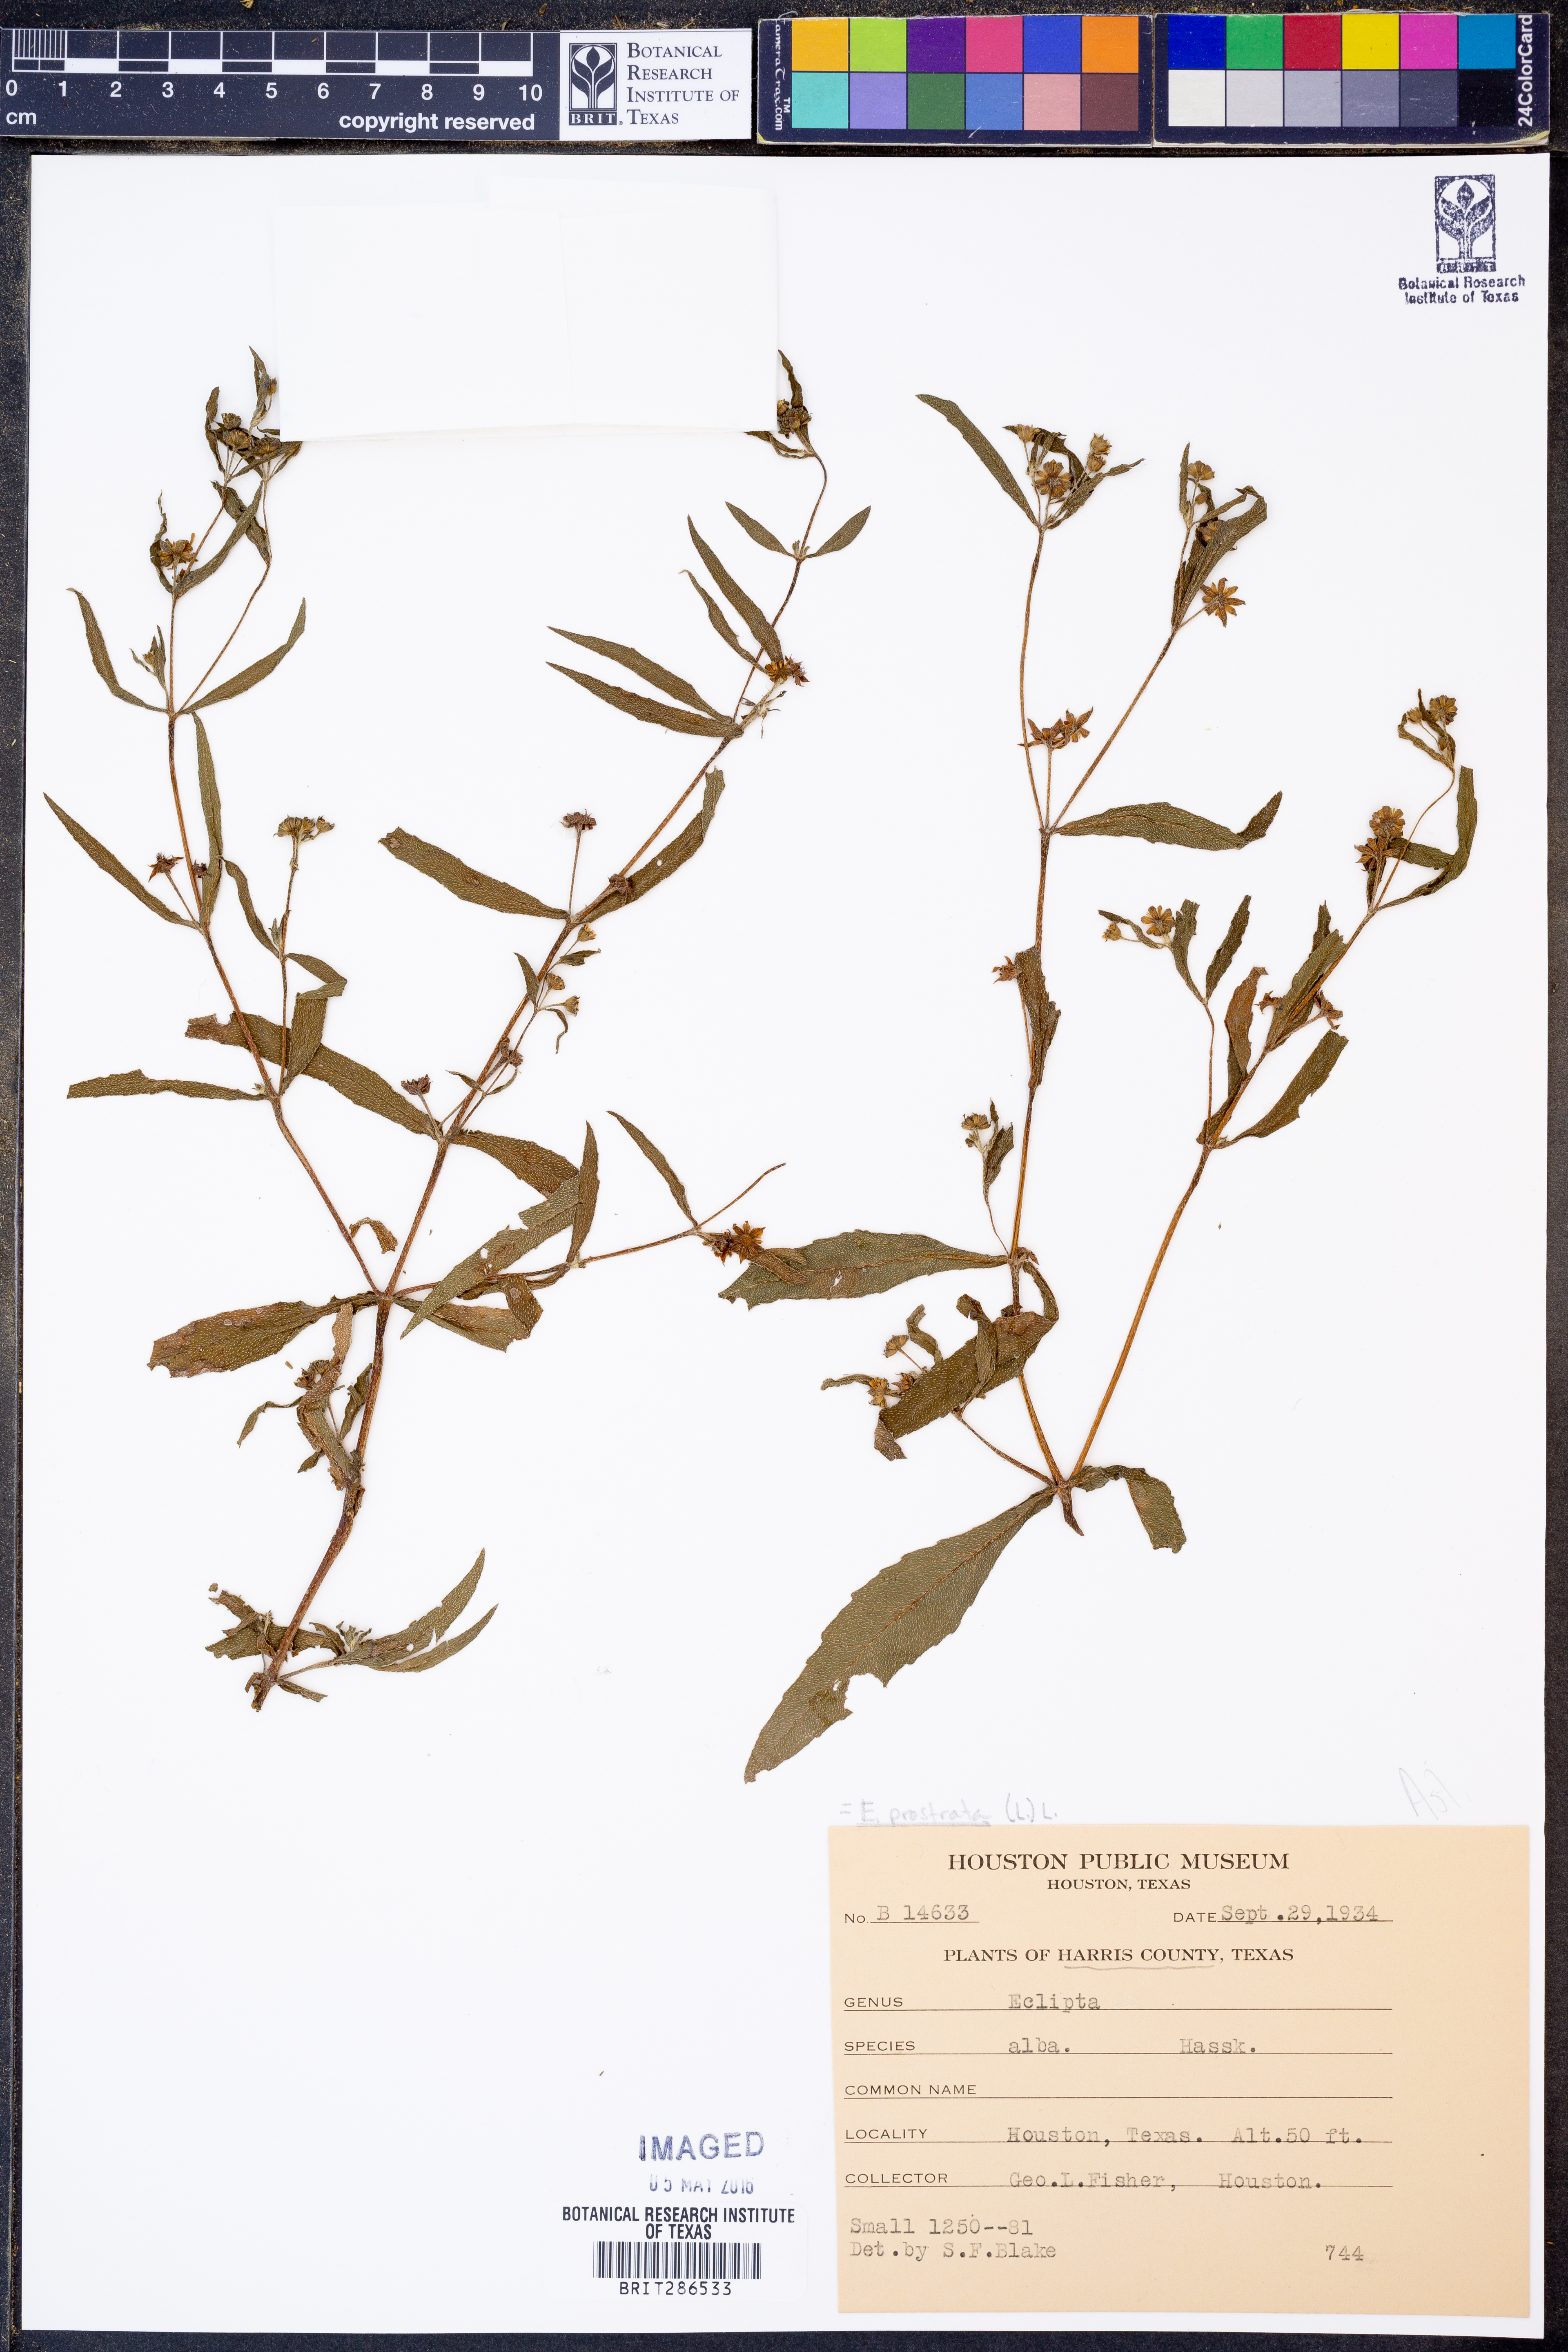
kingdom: Plantae
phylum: Tracheophyta
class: Magnoliopsida
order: Asterales
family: Asteraceae
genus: Eclipta
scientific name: Eclipta prostrata
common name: False daisy
